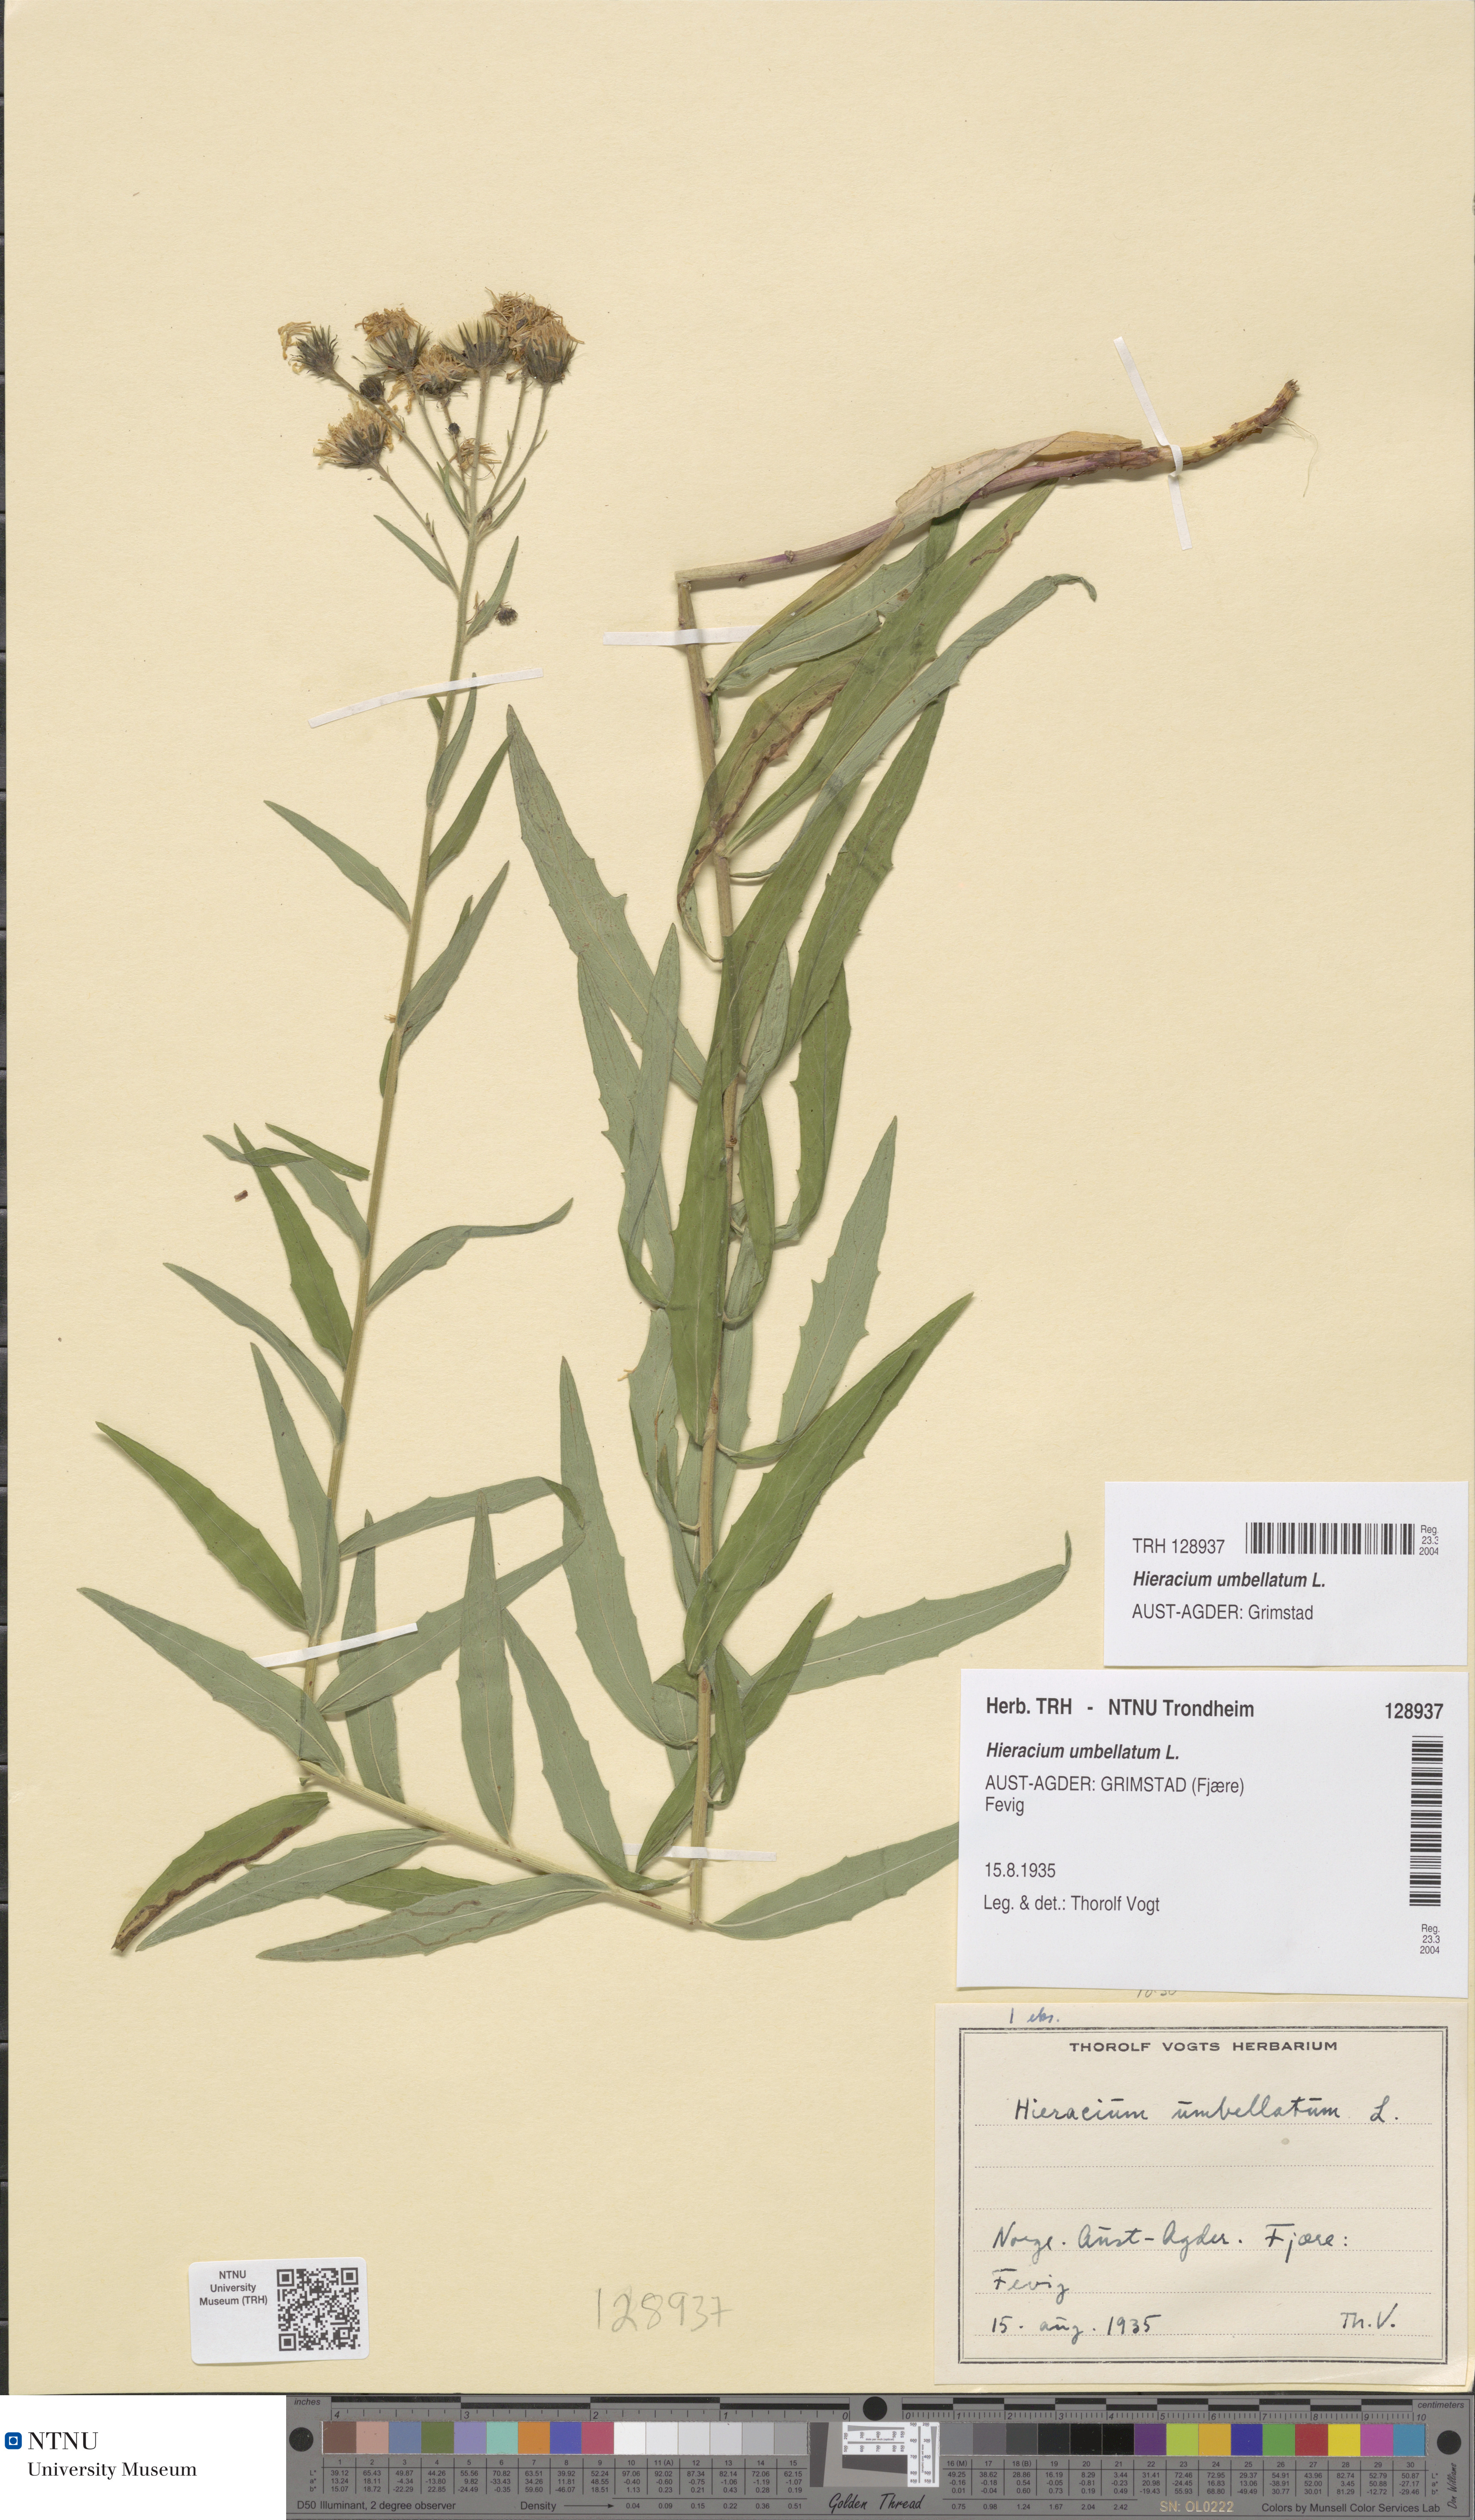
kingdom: Plantae
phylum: Tracheophyta
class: Magnoliopsida
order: Asterales
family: Asteraceae
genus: Hieracium
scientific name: Hieracium umbellatum
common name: Northern hawkweed
